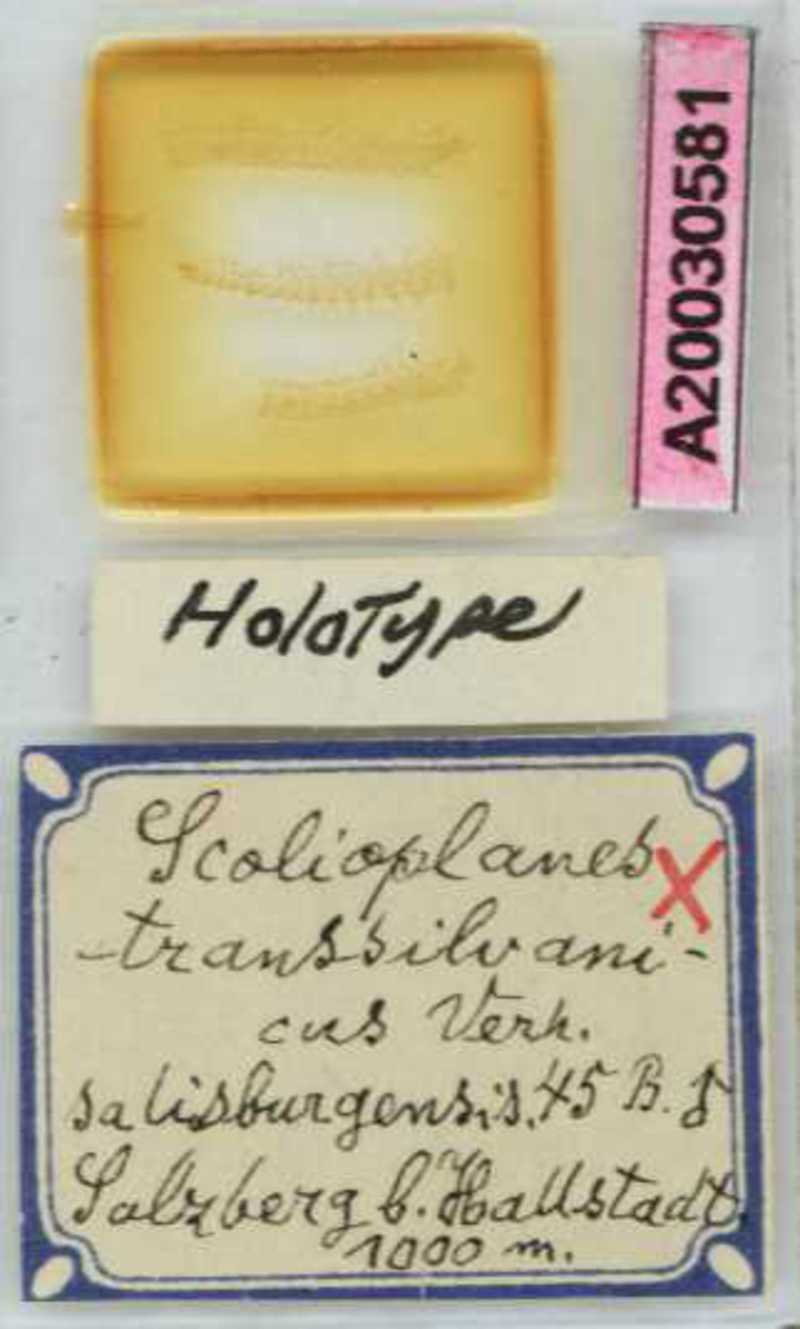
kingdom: Animalia
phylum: Arthropoda
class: Chilopoda
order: Geophilomorpha
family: Linotaeniidae
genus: Strigamia
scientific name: Strigamia transsilvanica
